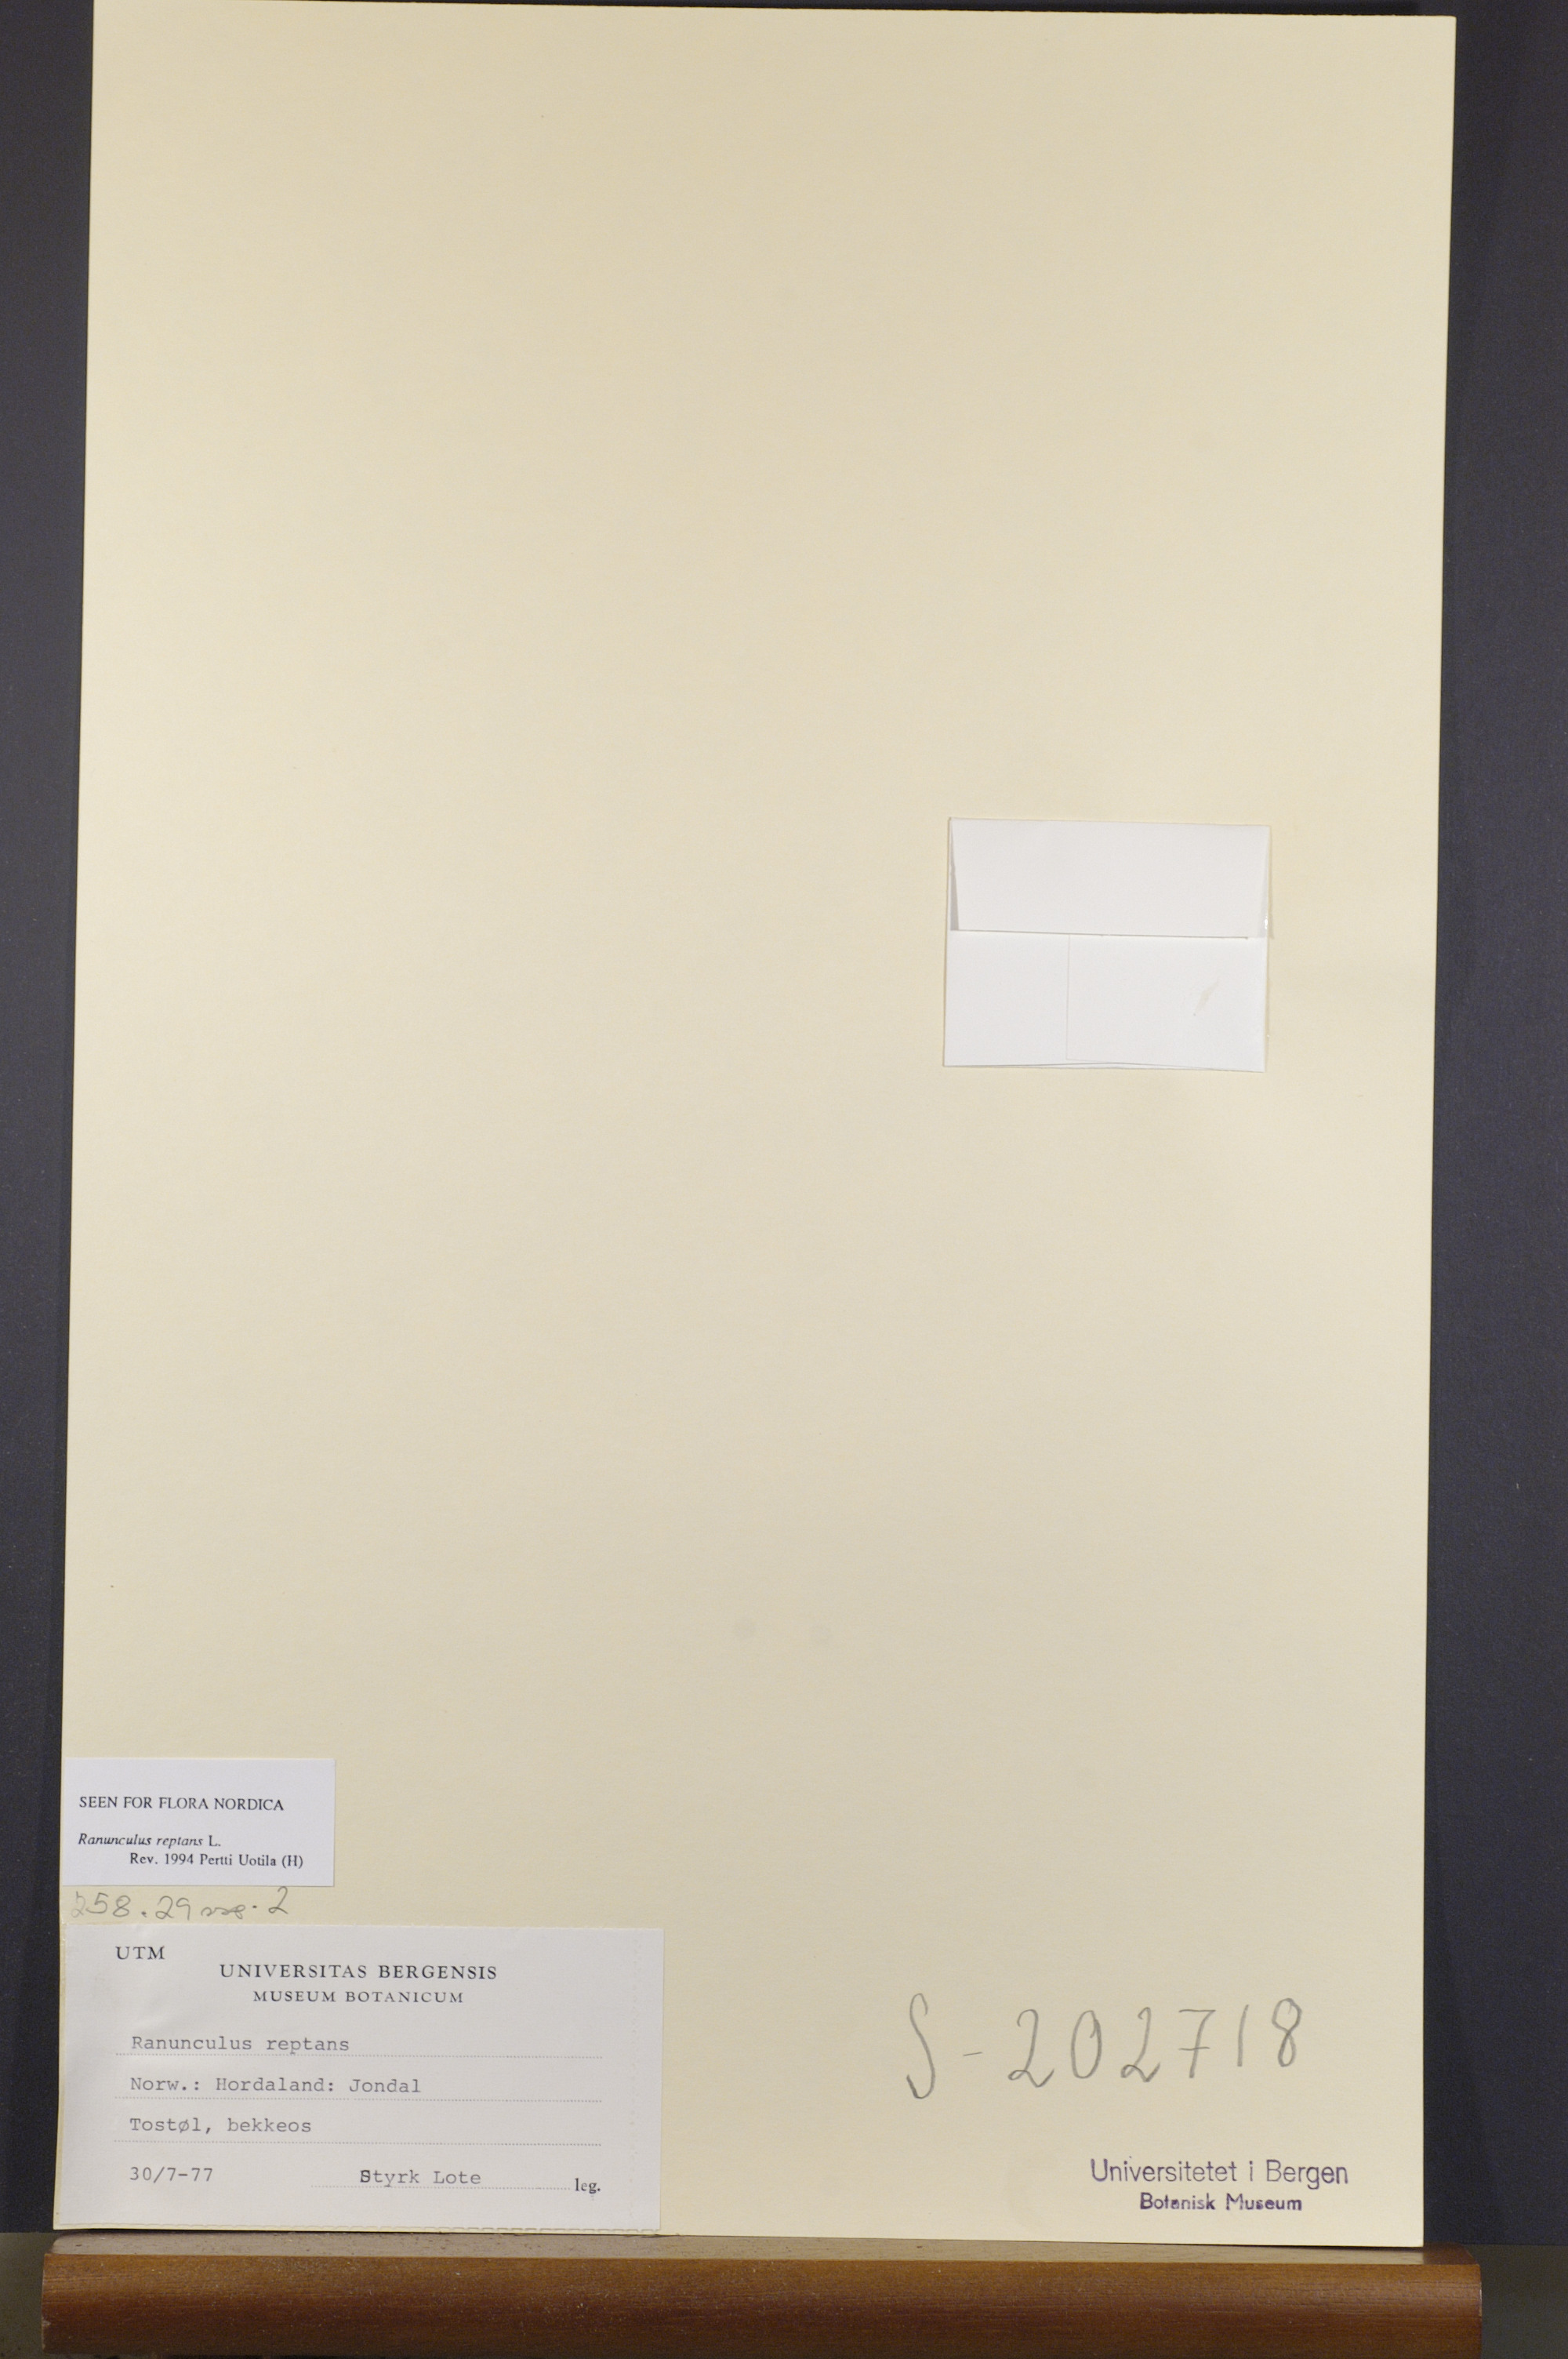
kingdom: Plantae
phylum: Tracheophyta
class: Magnoliopsida
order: Ranunculales
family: Ranunculaceae
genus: Ranunculus
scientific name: Ranunculus reptans
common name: Creeping spearwort
